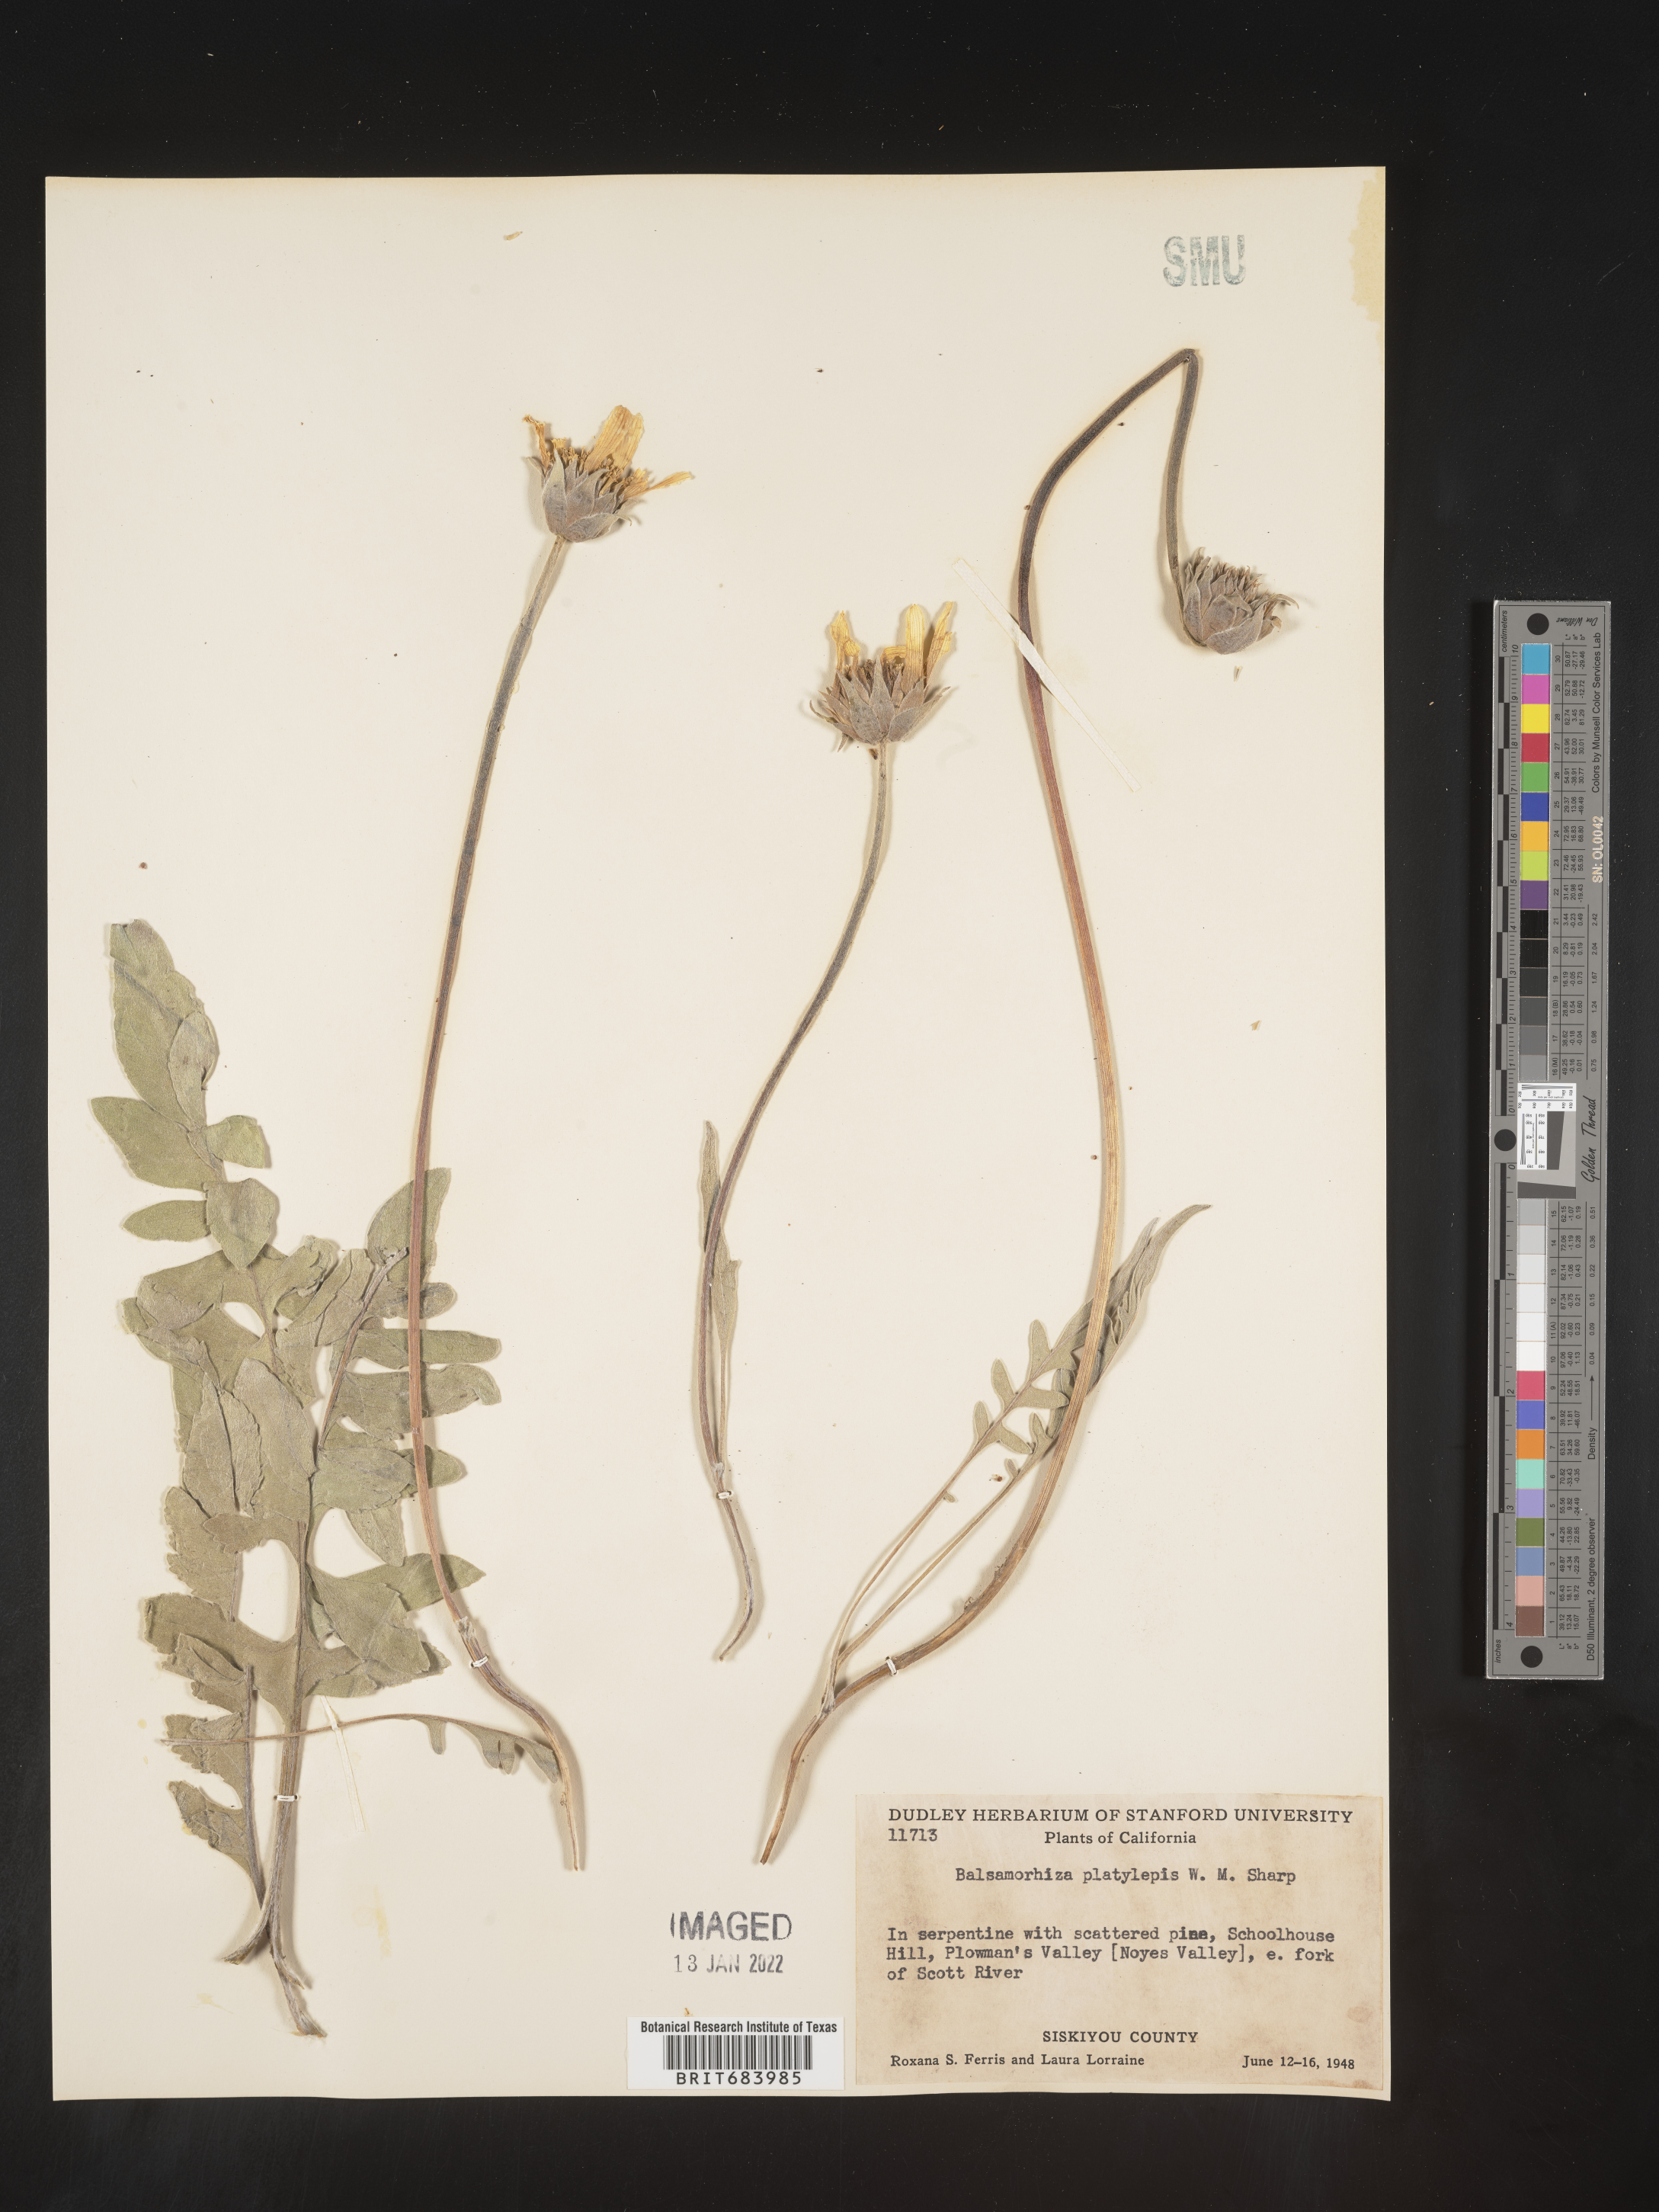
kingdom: Plantae
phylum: Tracheophyta
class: Magnoliopsida
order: Asterales
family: Asteraceae
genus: Balsamorhiza
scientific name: Balsamorhiza
